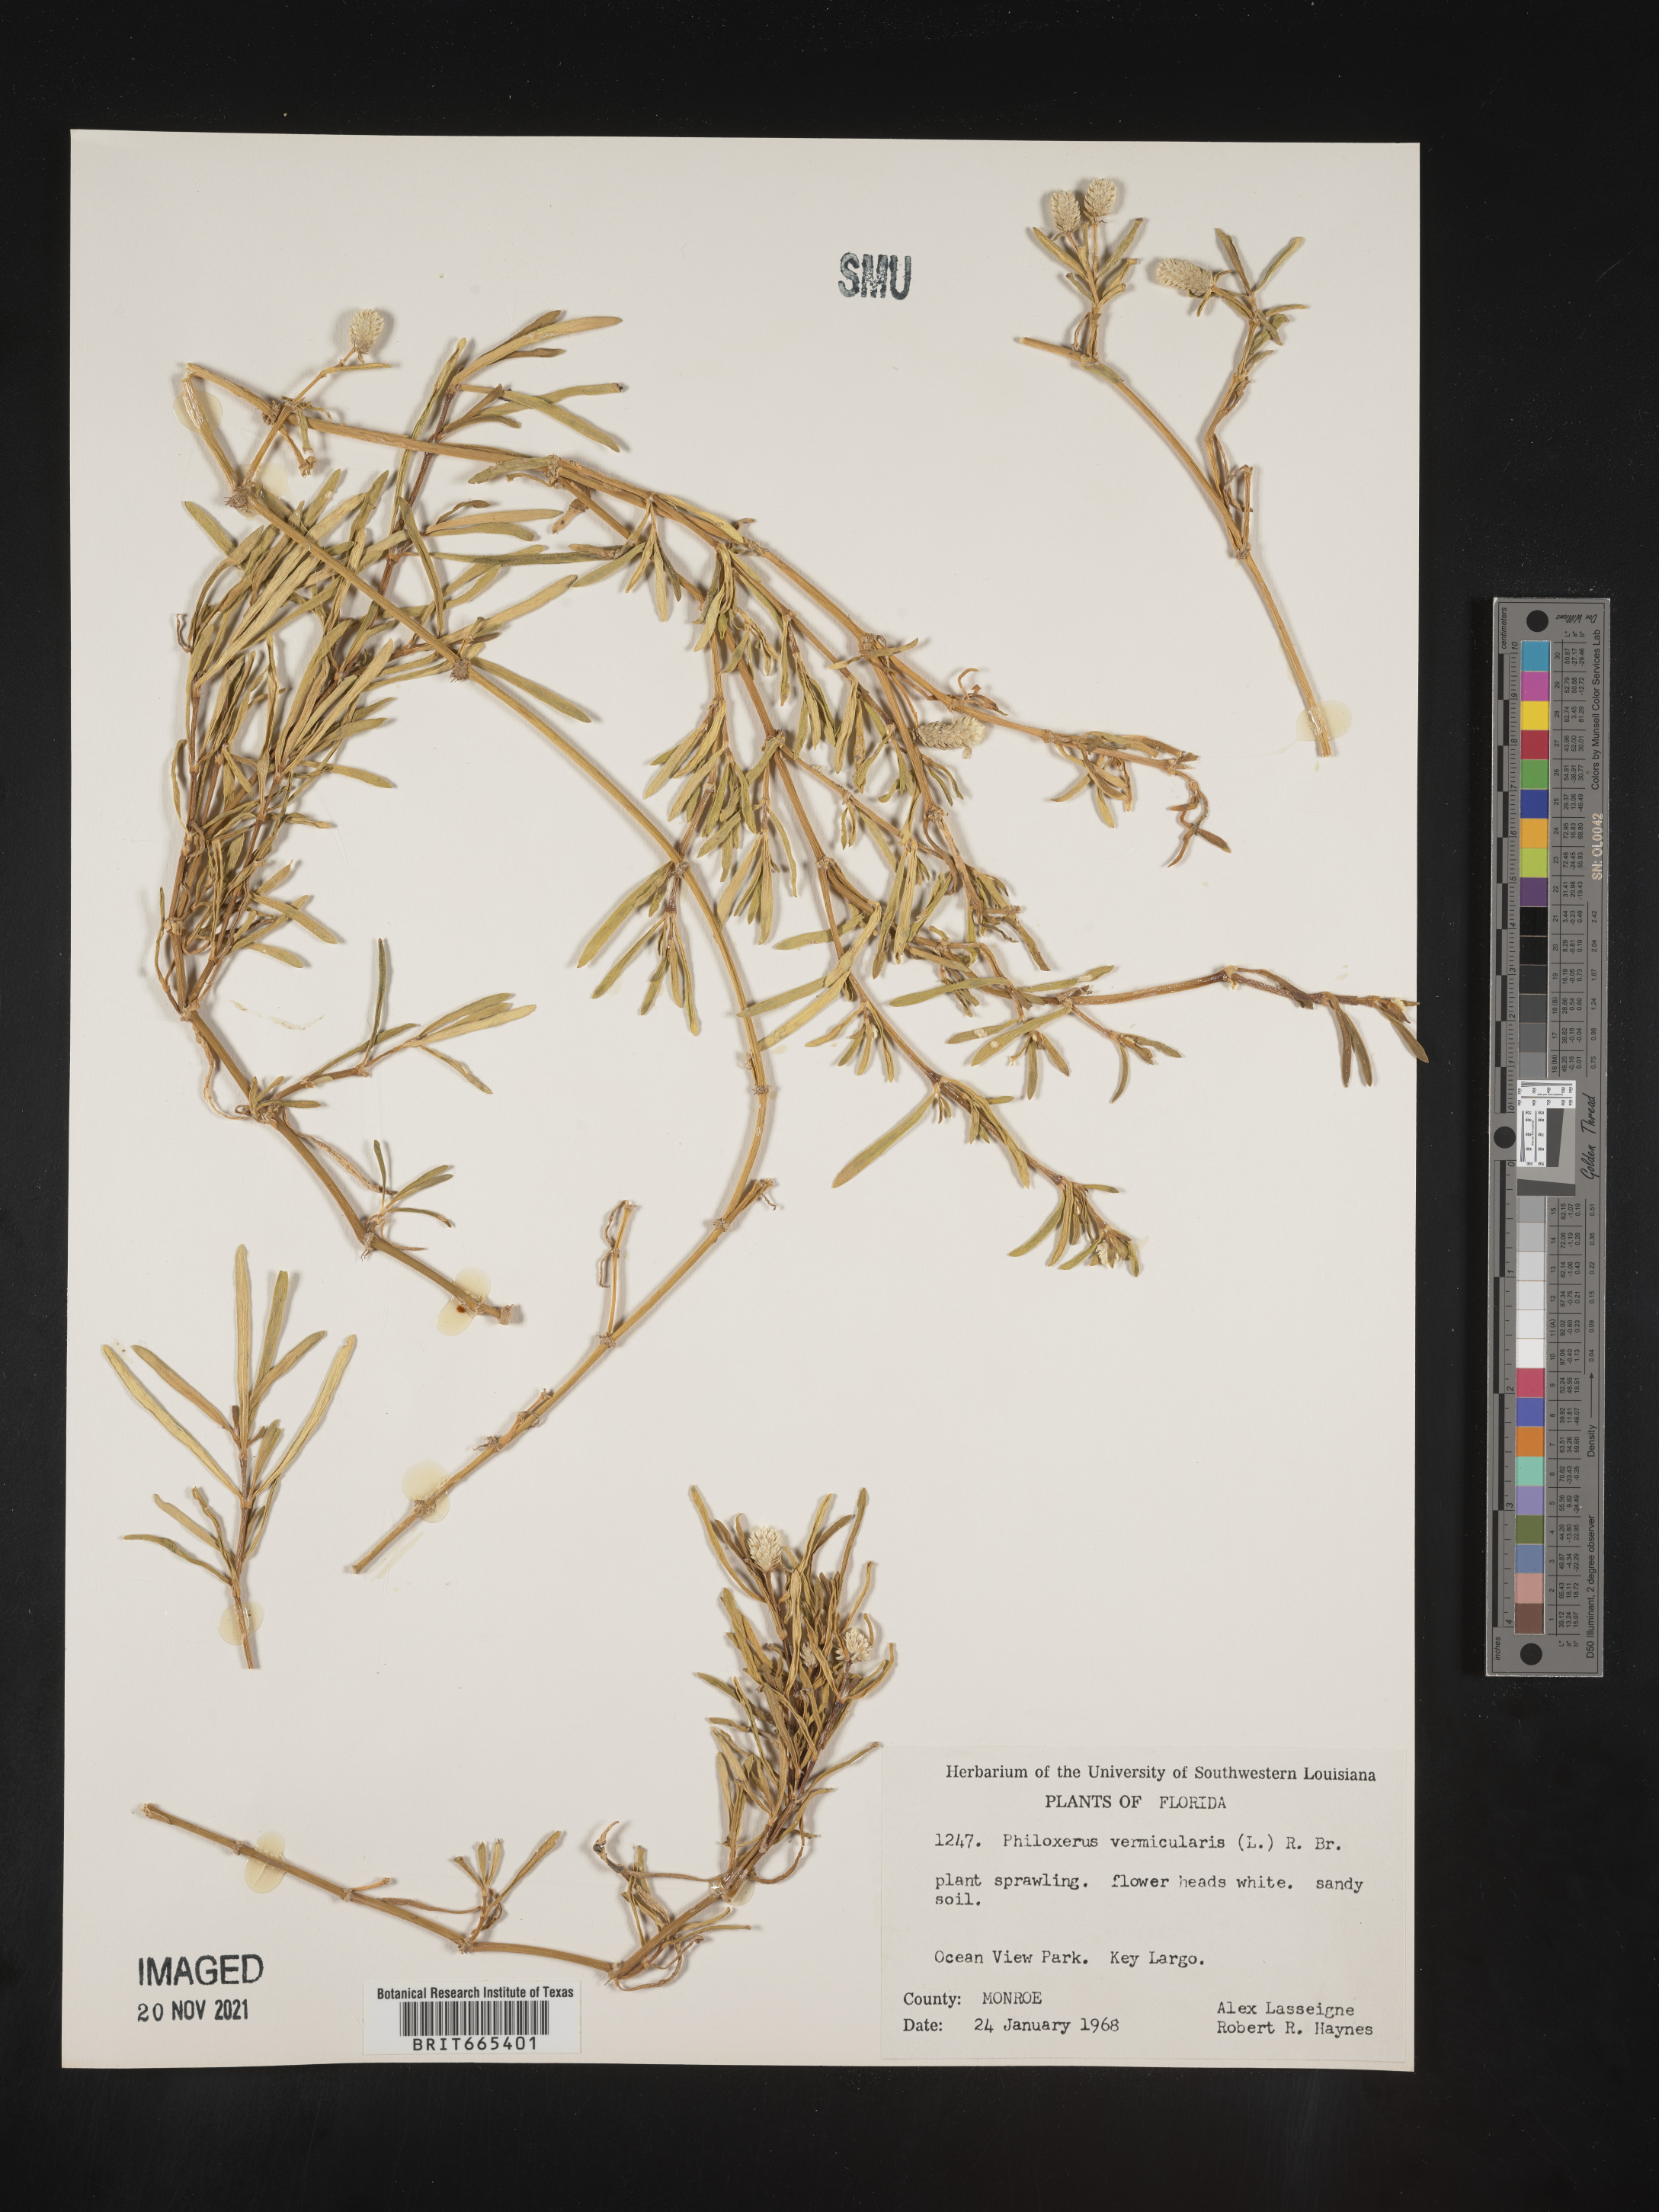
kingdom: Plantae
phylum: Tracheophyta
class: Magnoliopsida
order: Caryophyllales
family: Amaranthaceae
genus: Gomphrena
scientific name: Gomphrena
